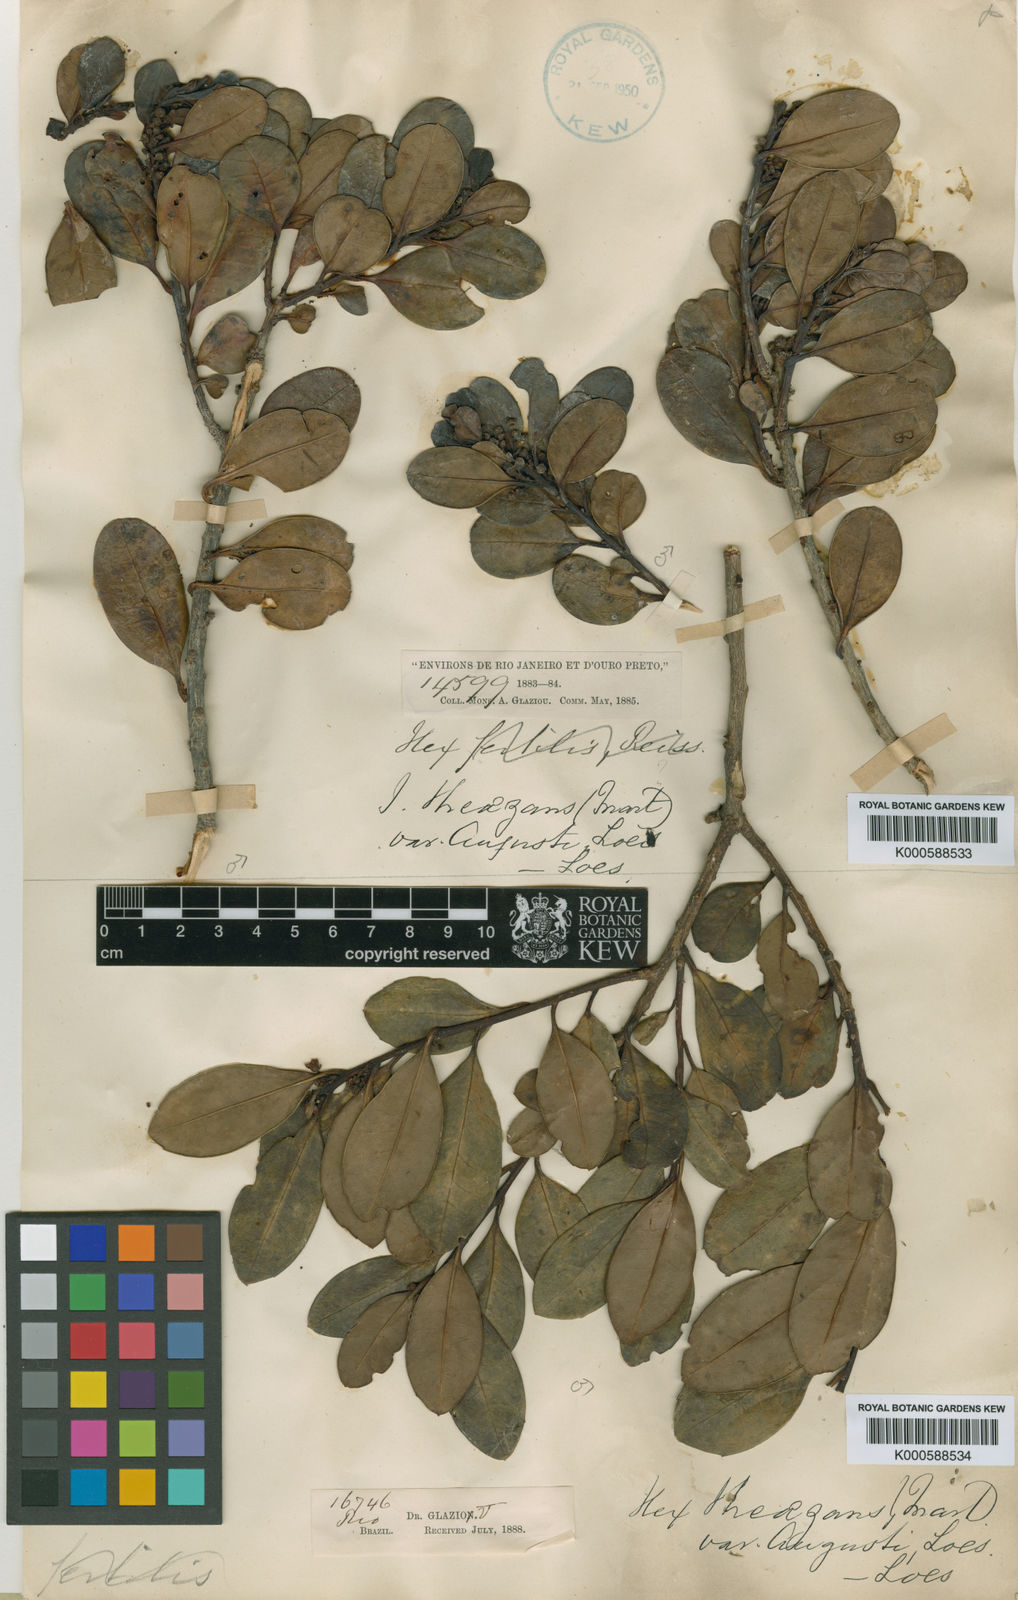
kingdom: Plantae
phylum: Tracheophyta
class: Magnoliopsida
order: Aquifoliales
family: Aquifoliaceae
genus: Ilex
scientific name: Ilex
